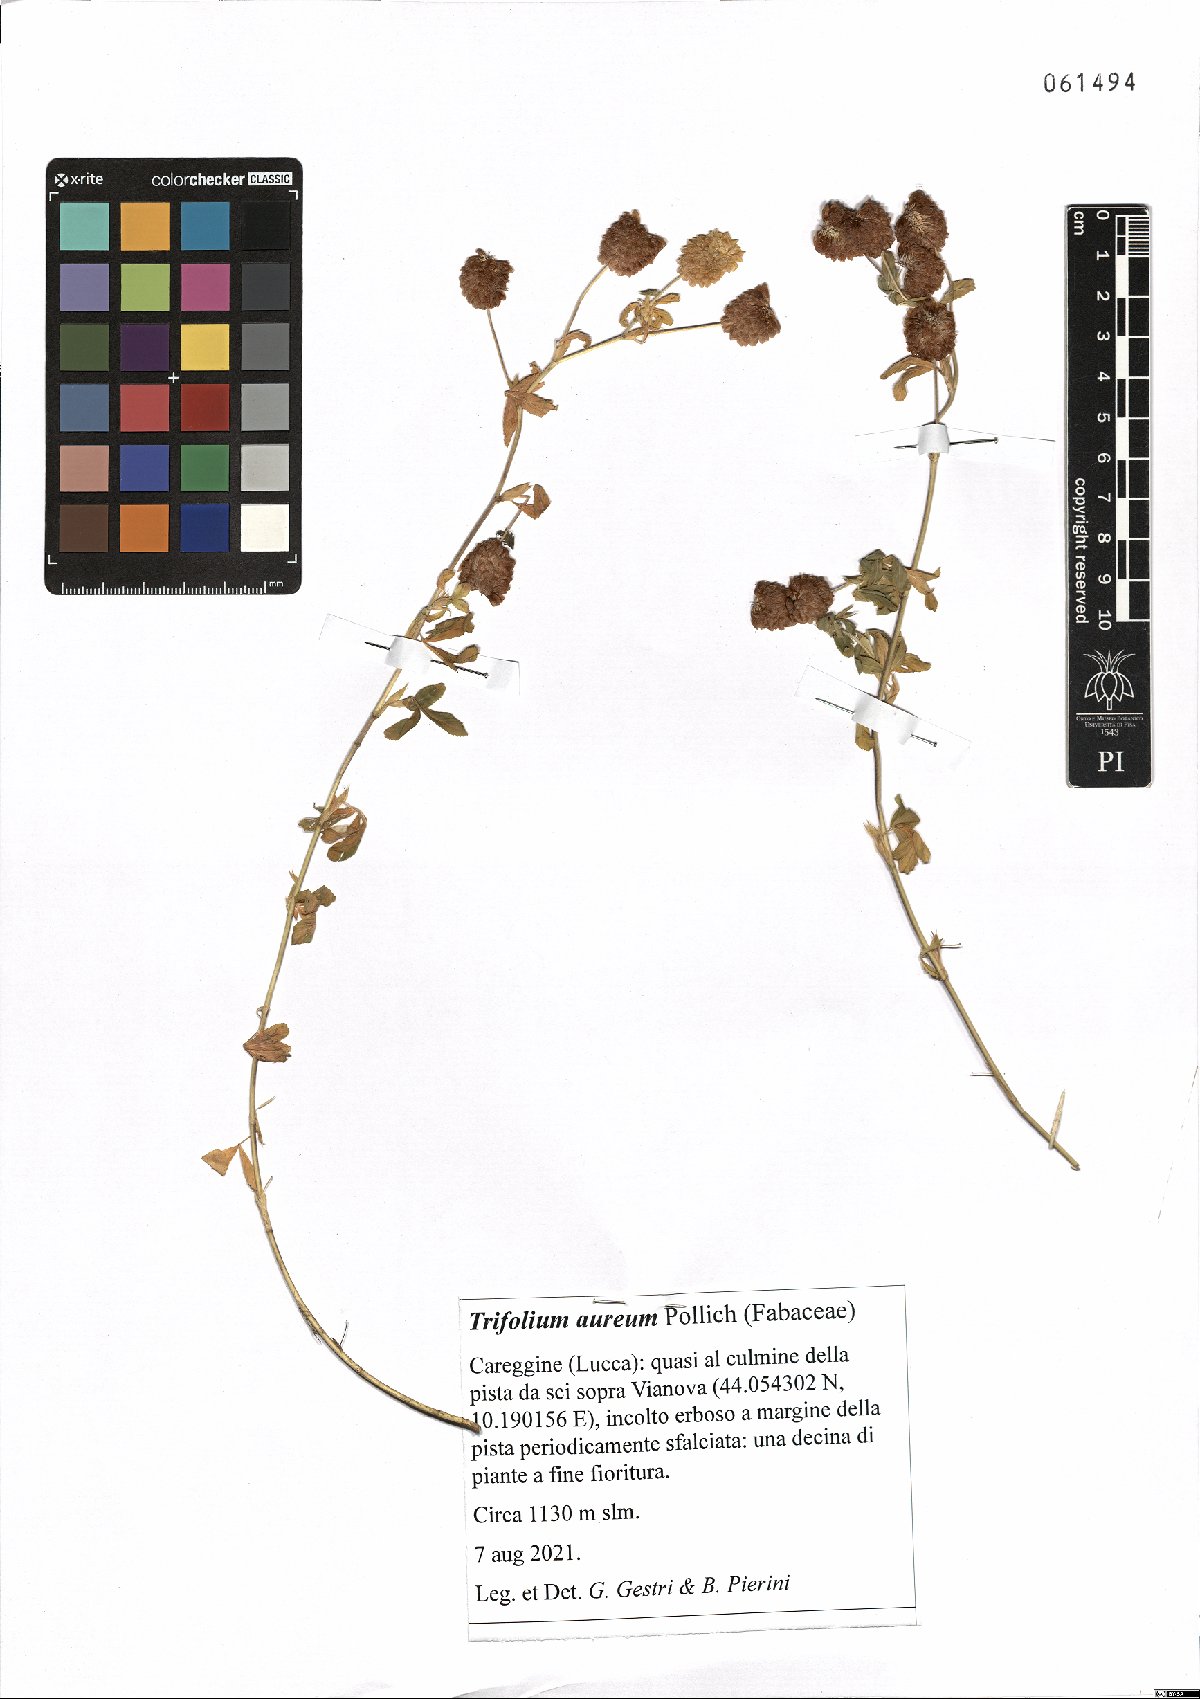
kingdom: Plantae
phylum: Tracheophyta
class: Magnoliopsida
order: Fabales
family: Fabaceae
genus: Trifolium
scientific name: Trifolium aureum
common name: Golden clover
